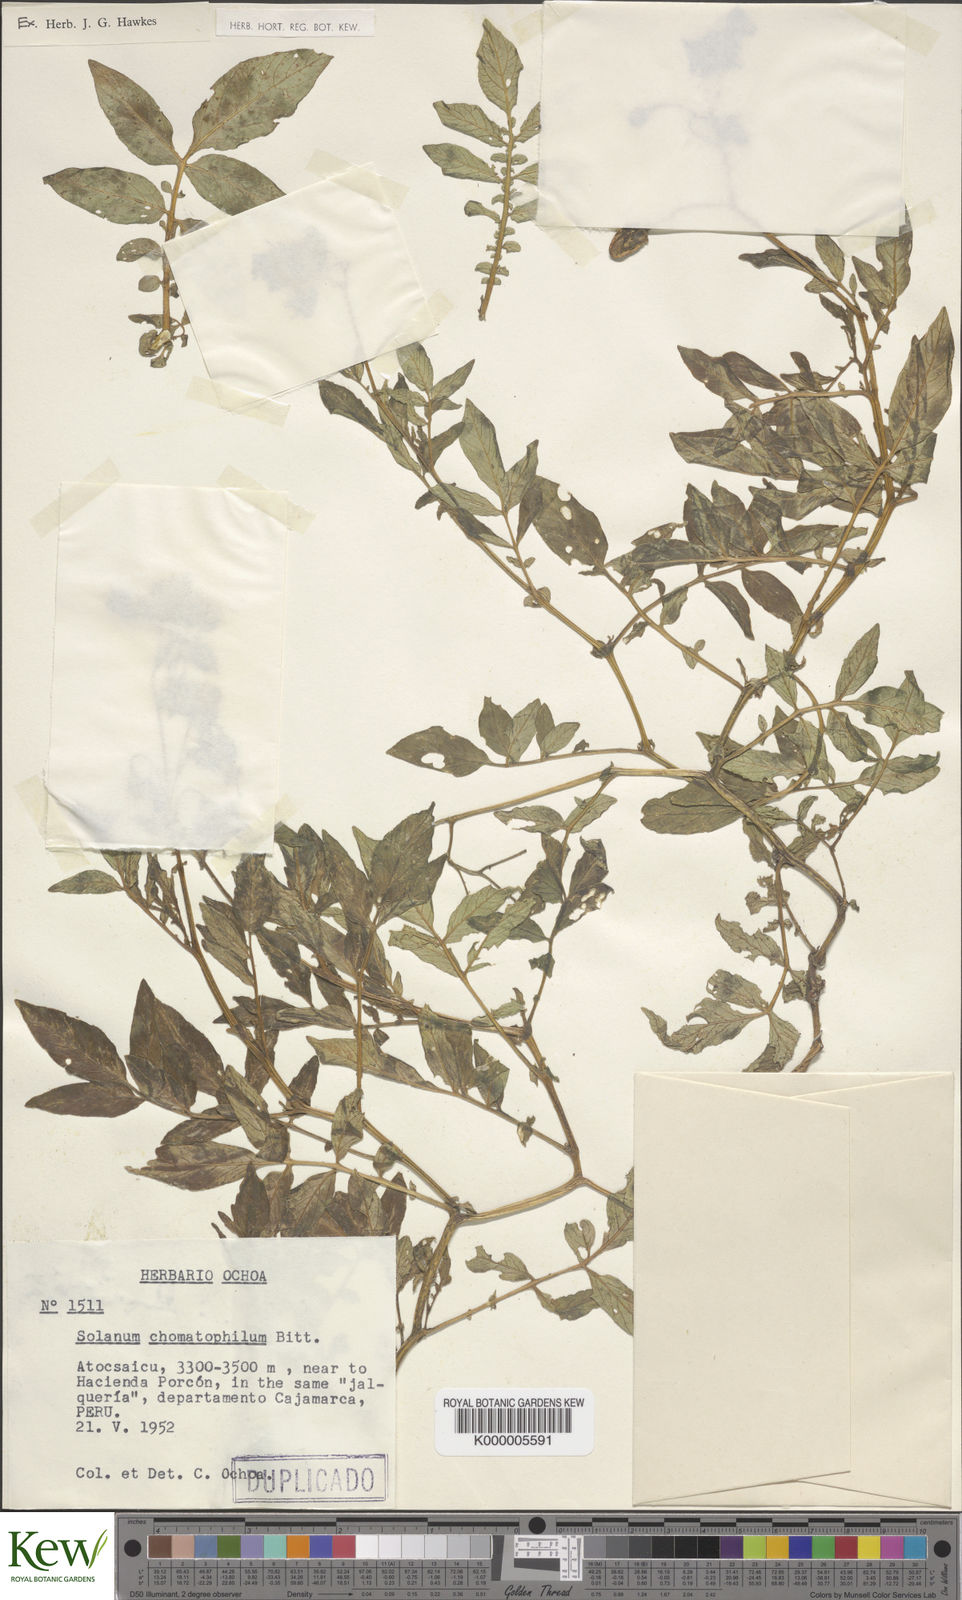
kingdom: Plantae
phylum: Tracheophyta
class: Magnoliopsida
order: Solanales
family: Solanaceae
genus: Solanum
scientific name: Solanum chomatophilum
